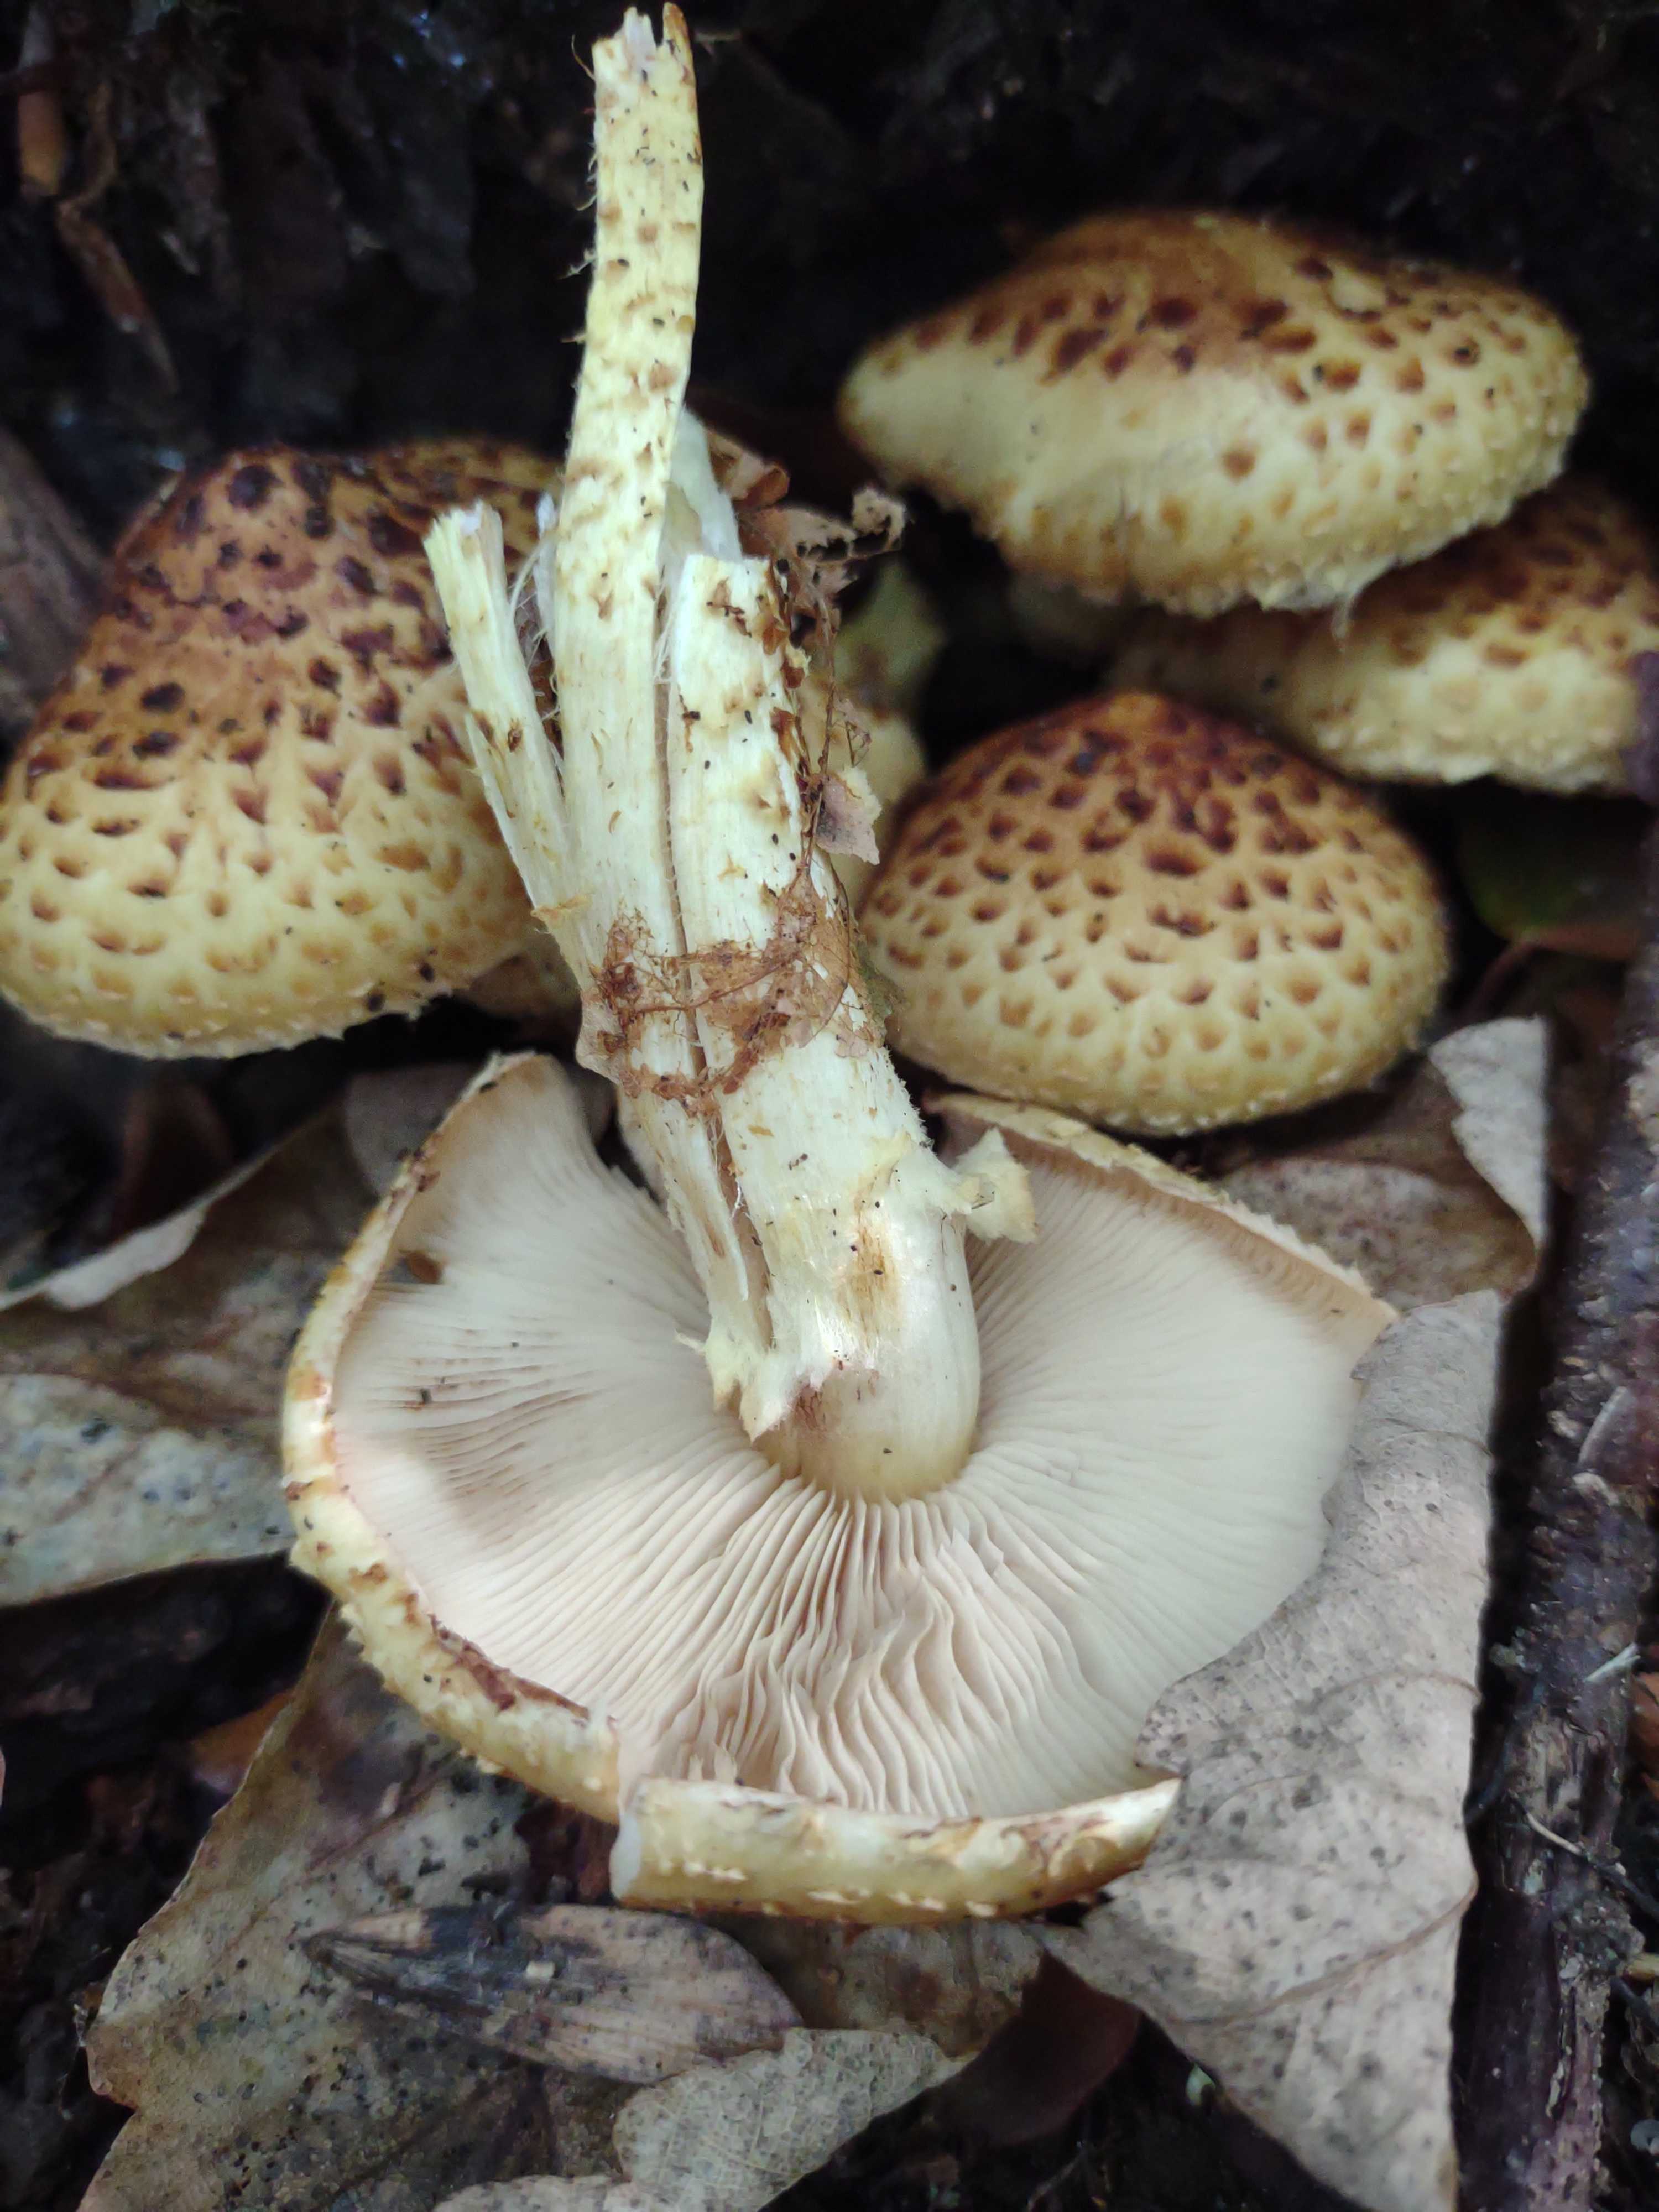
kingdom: Fungi
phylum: Basidiomycota
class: Agaricomycetes
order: Agaricales
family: Strophariaceae
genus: Pholiota
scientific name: Pholiota jahnii
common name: slimet skælhat
